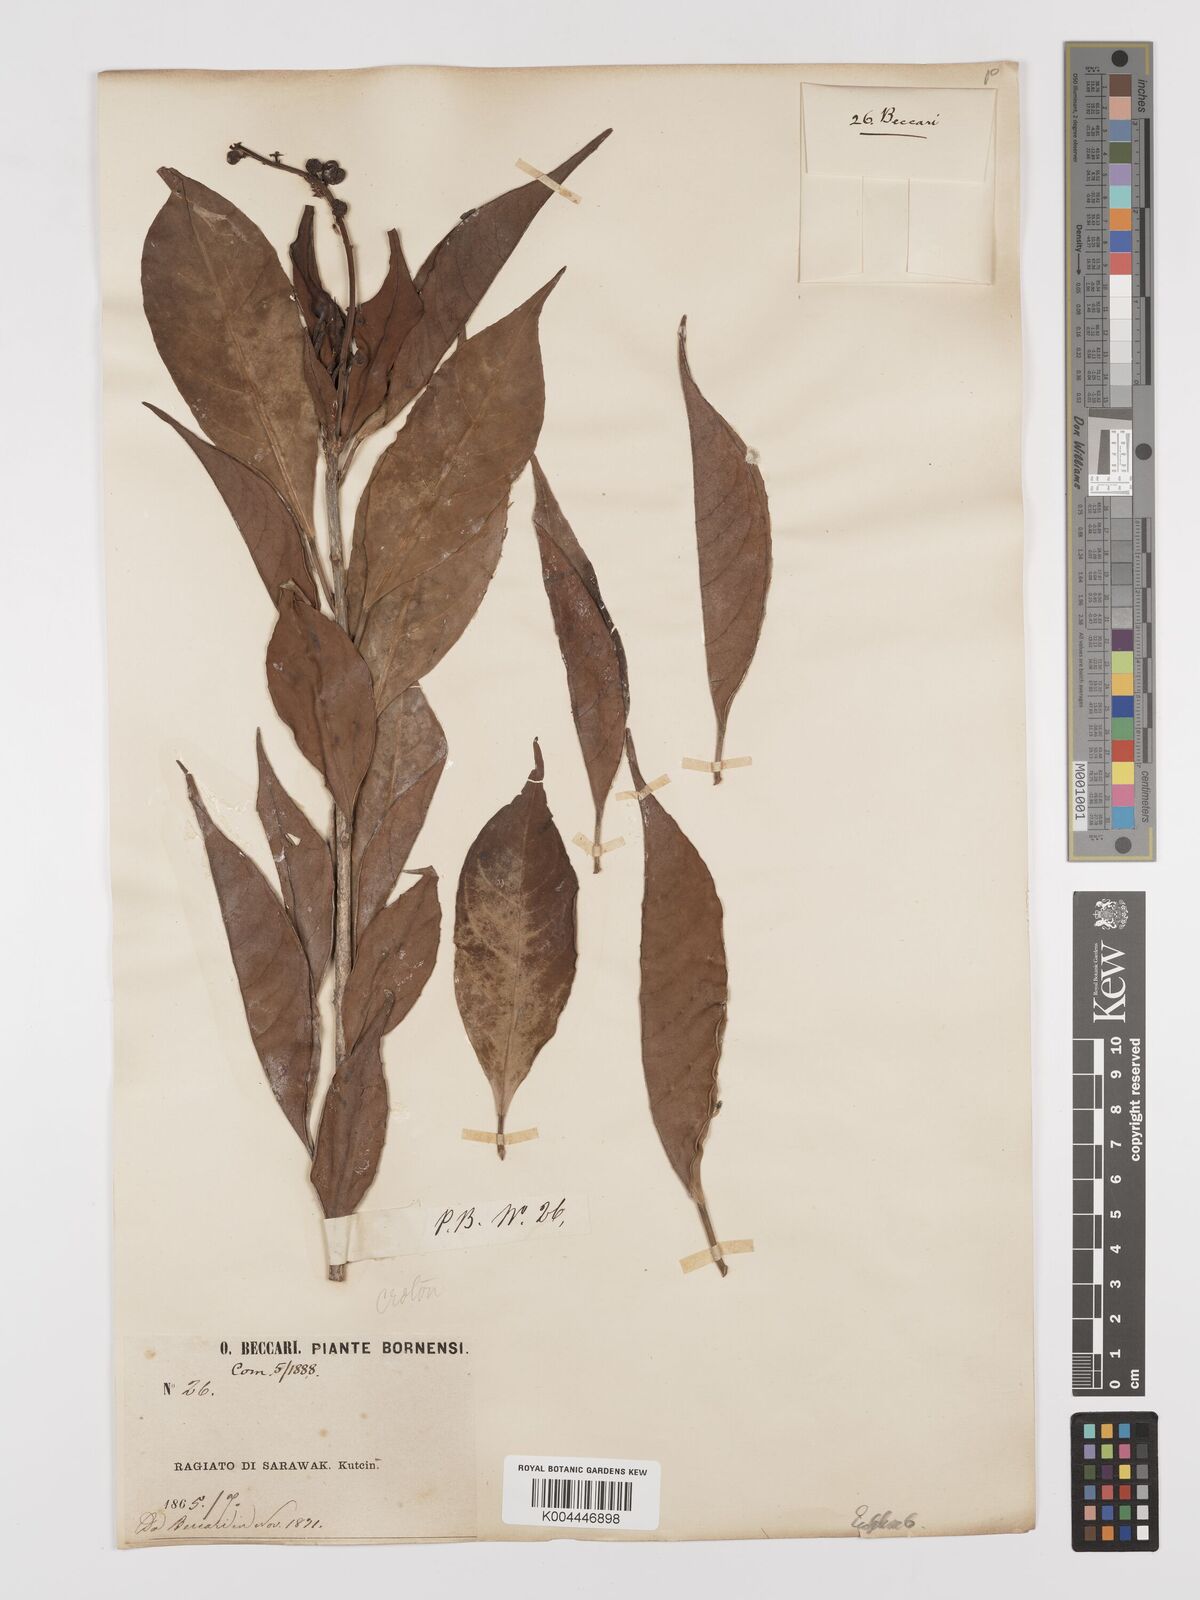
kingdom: Plantae
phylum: Tracheophyta
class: Magnoliopsida
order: Malpighiales
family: Euphorbiaceae
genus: Croton
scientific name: Croton oblongus
